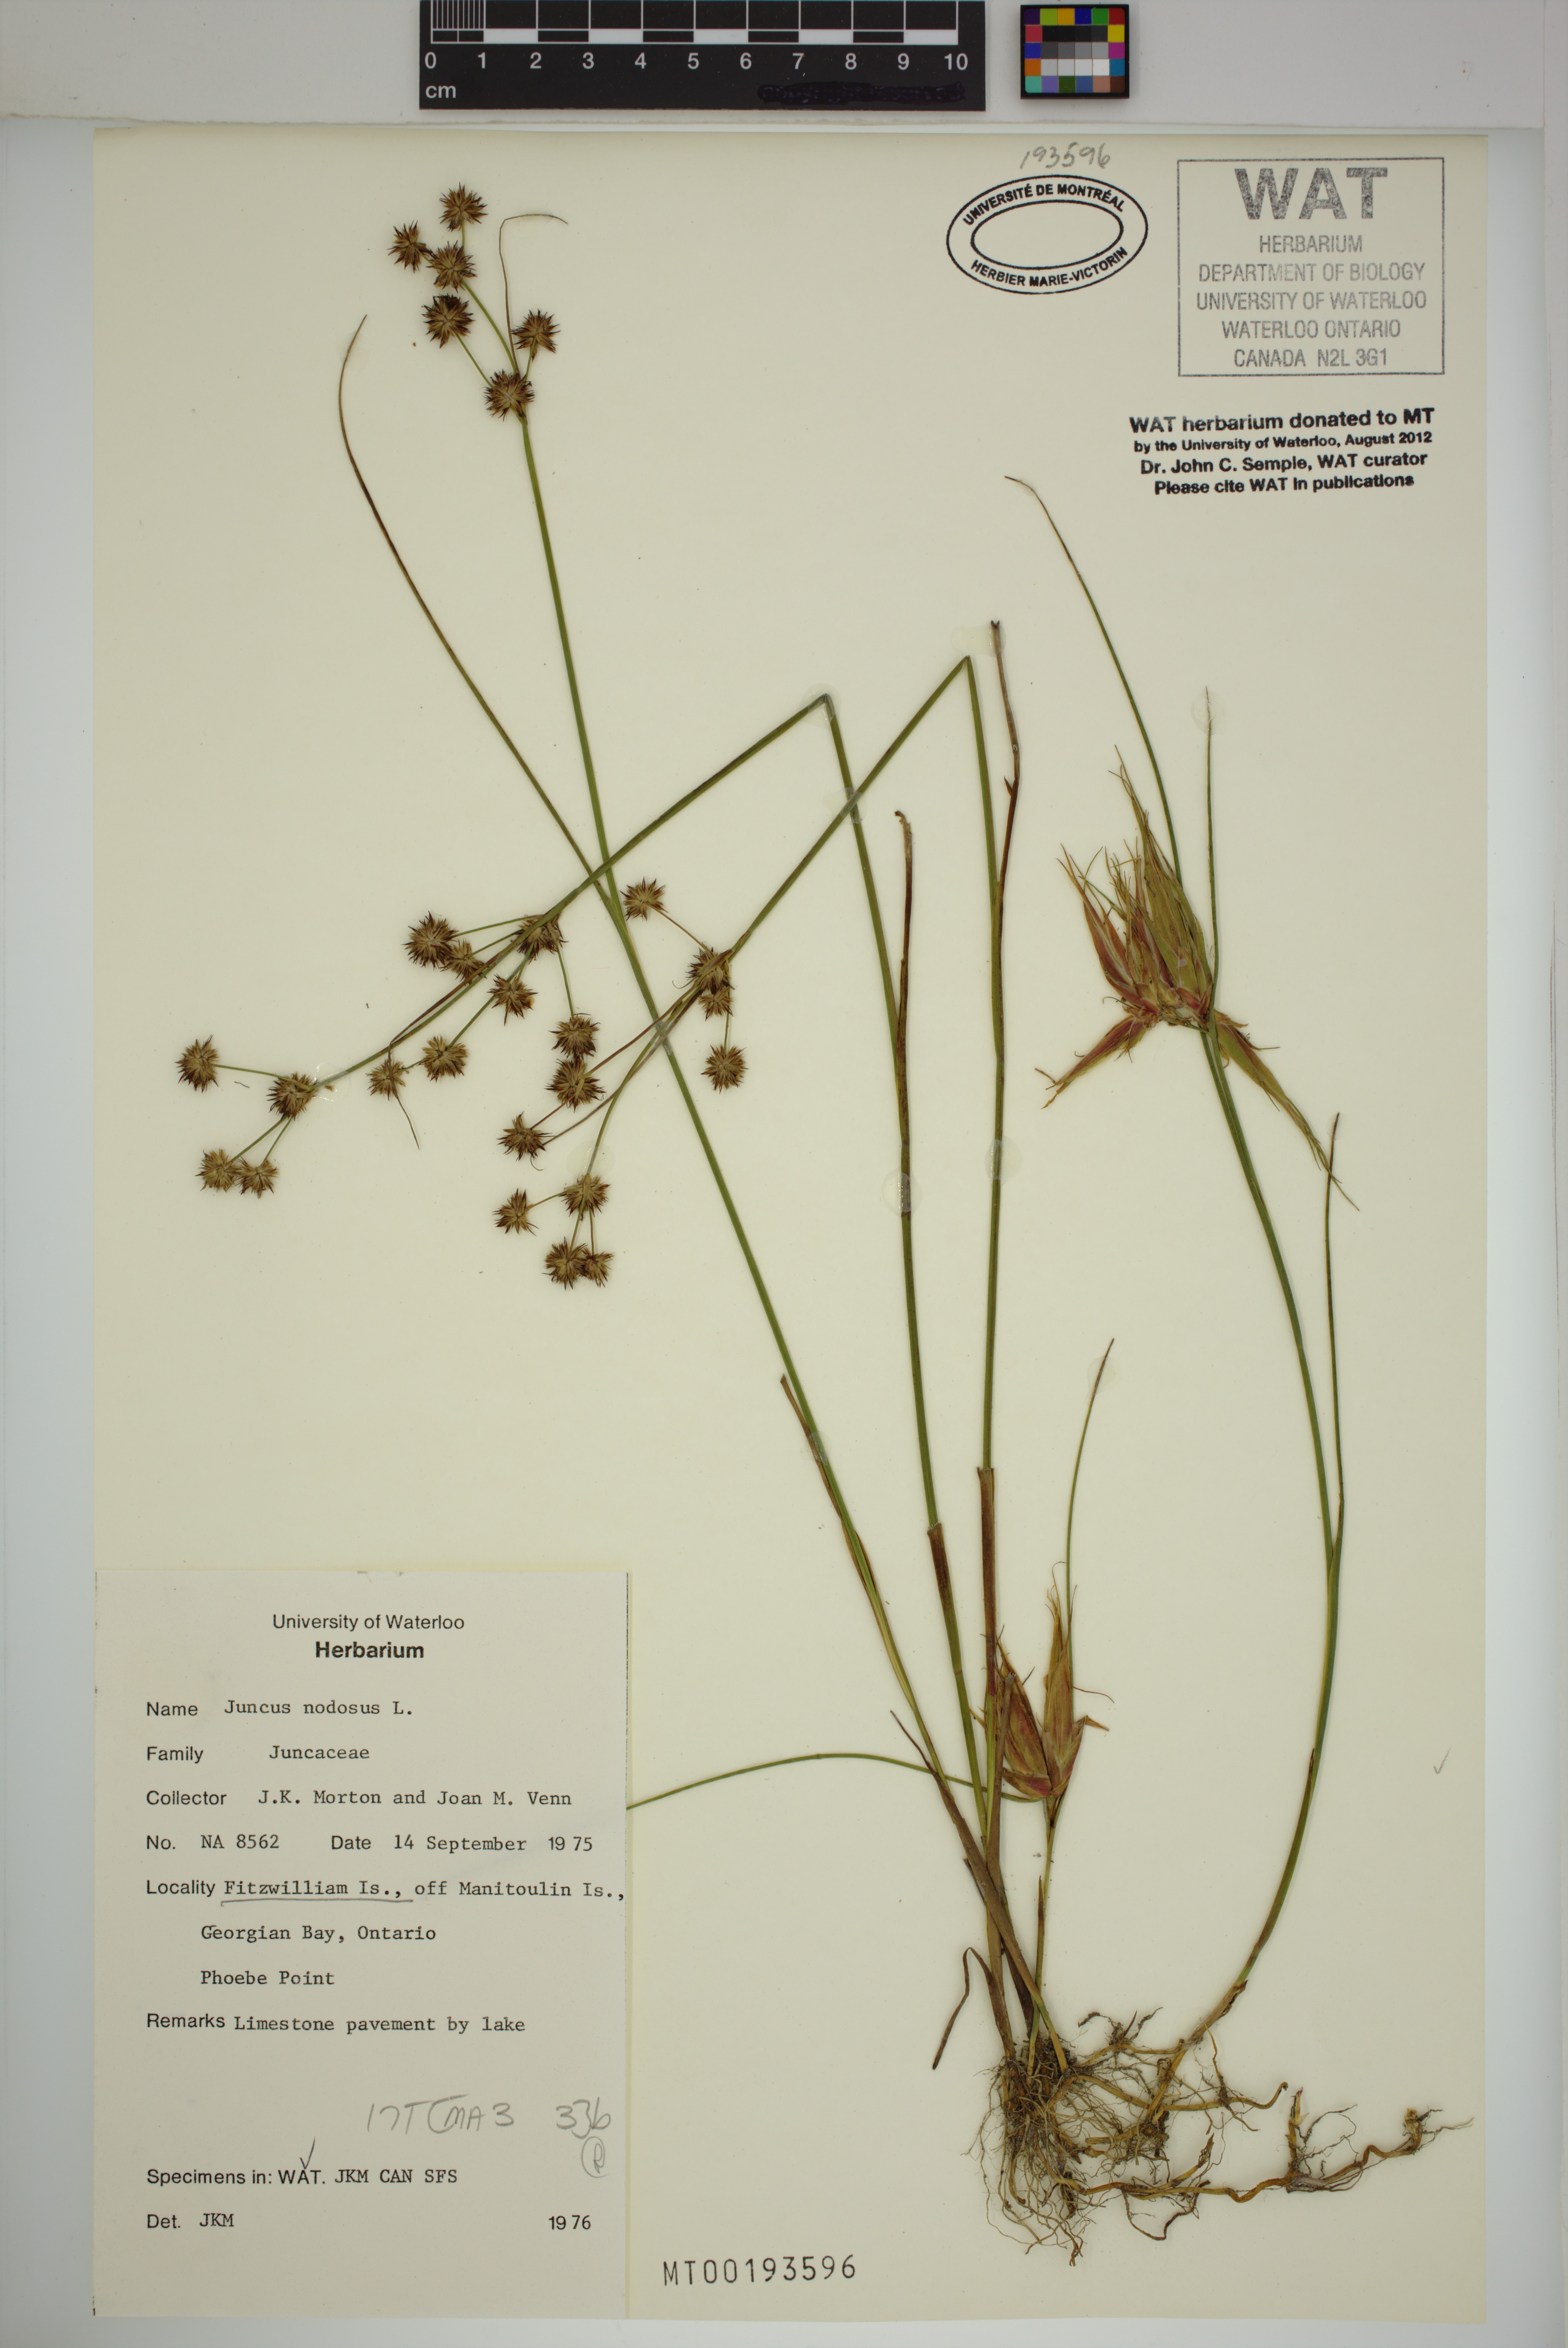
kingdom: Plantae
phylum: Tracheophyta
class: Liliopsida
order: Poales
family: Juncaceae
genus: Juncus
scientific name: Juncus nodosus
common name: Knotted rush
